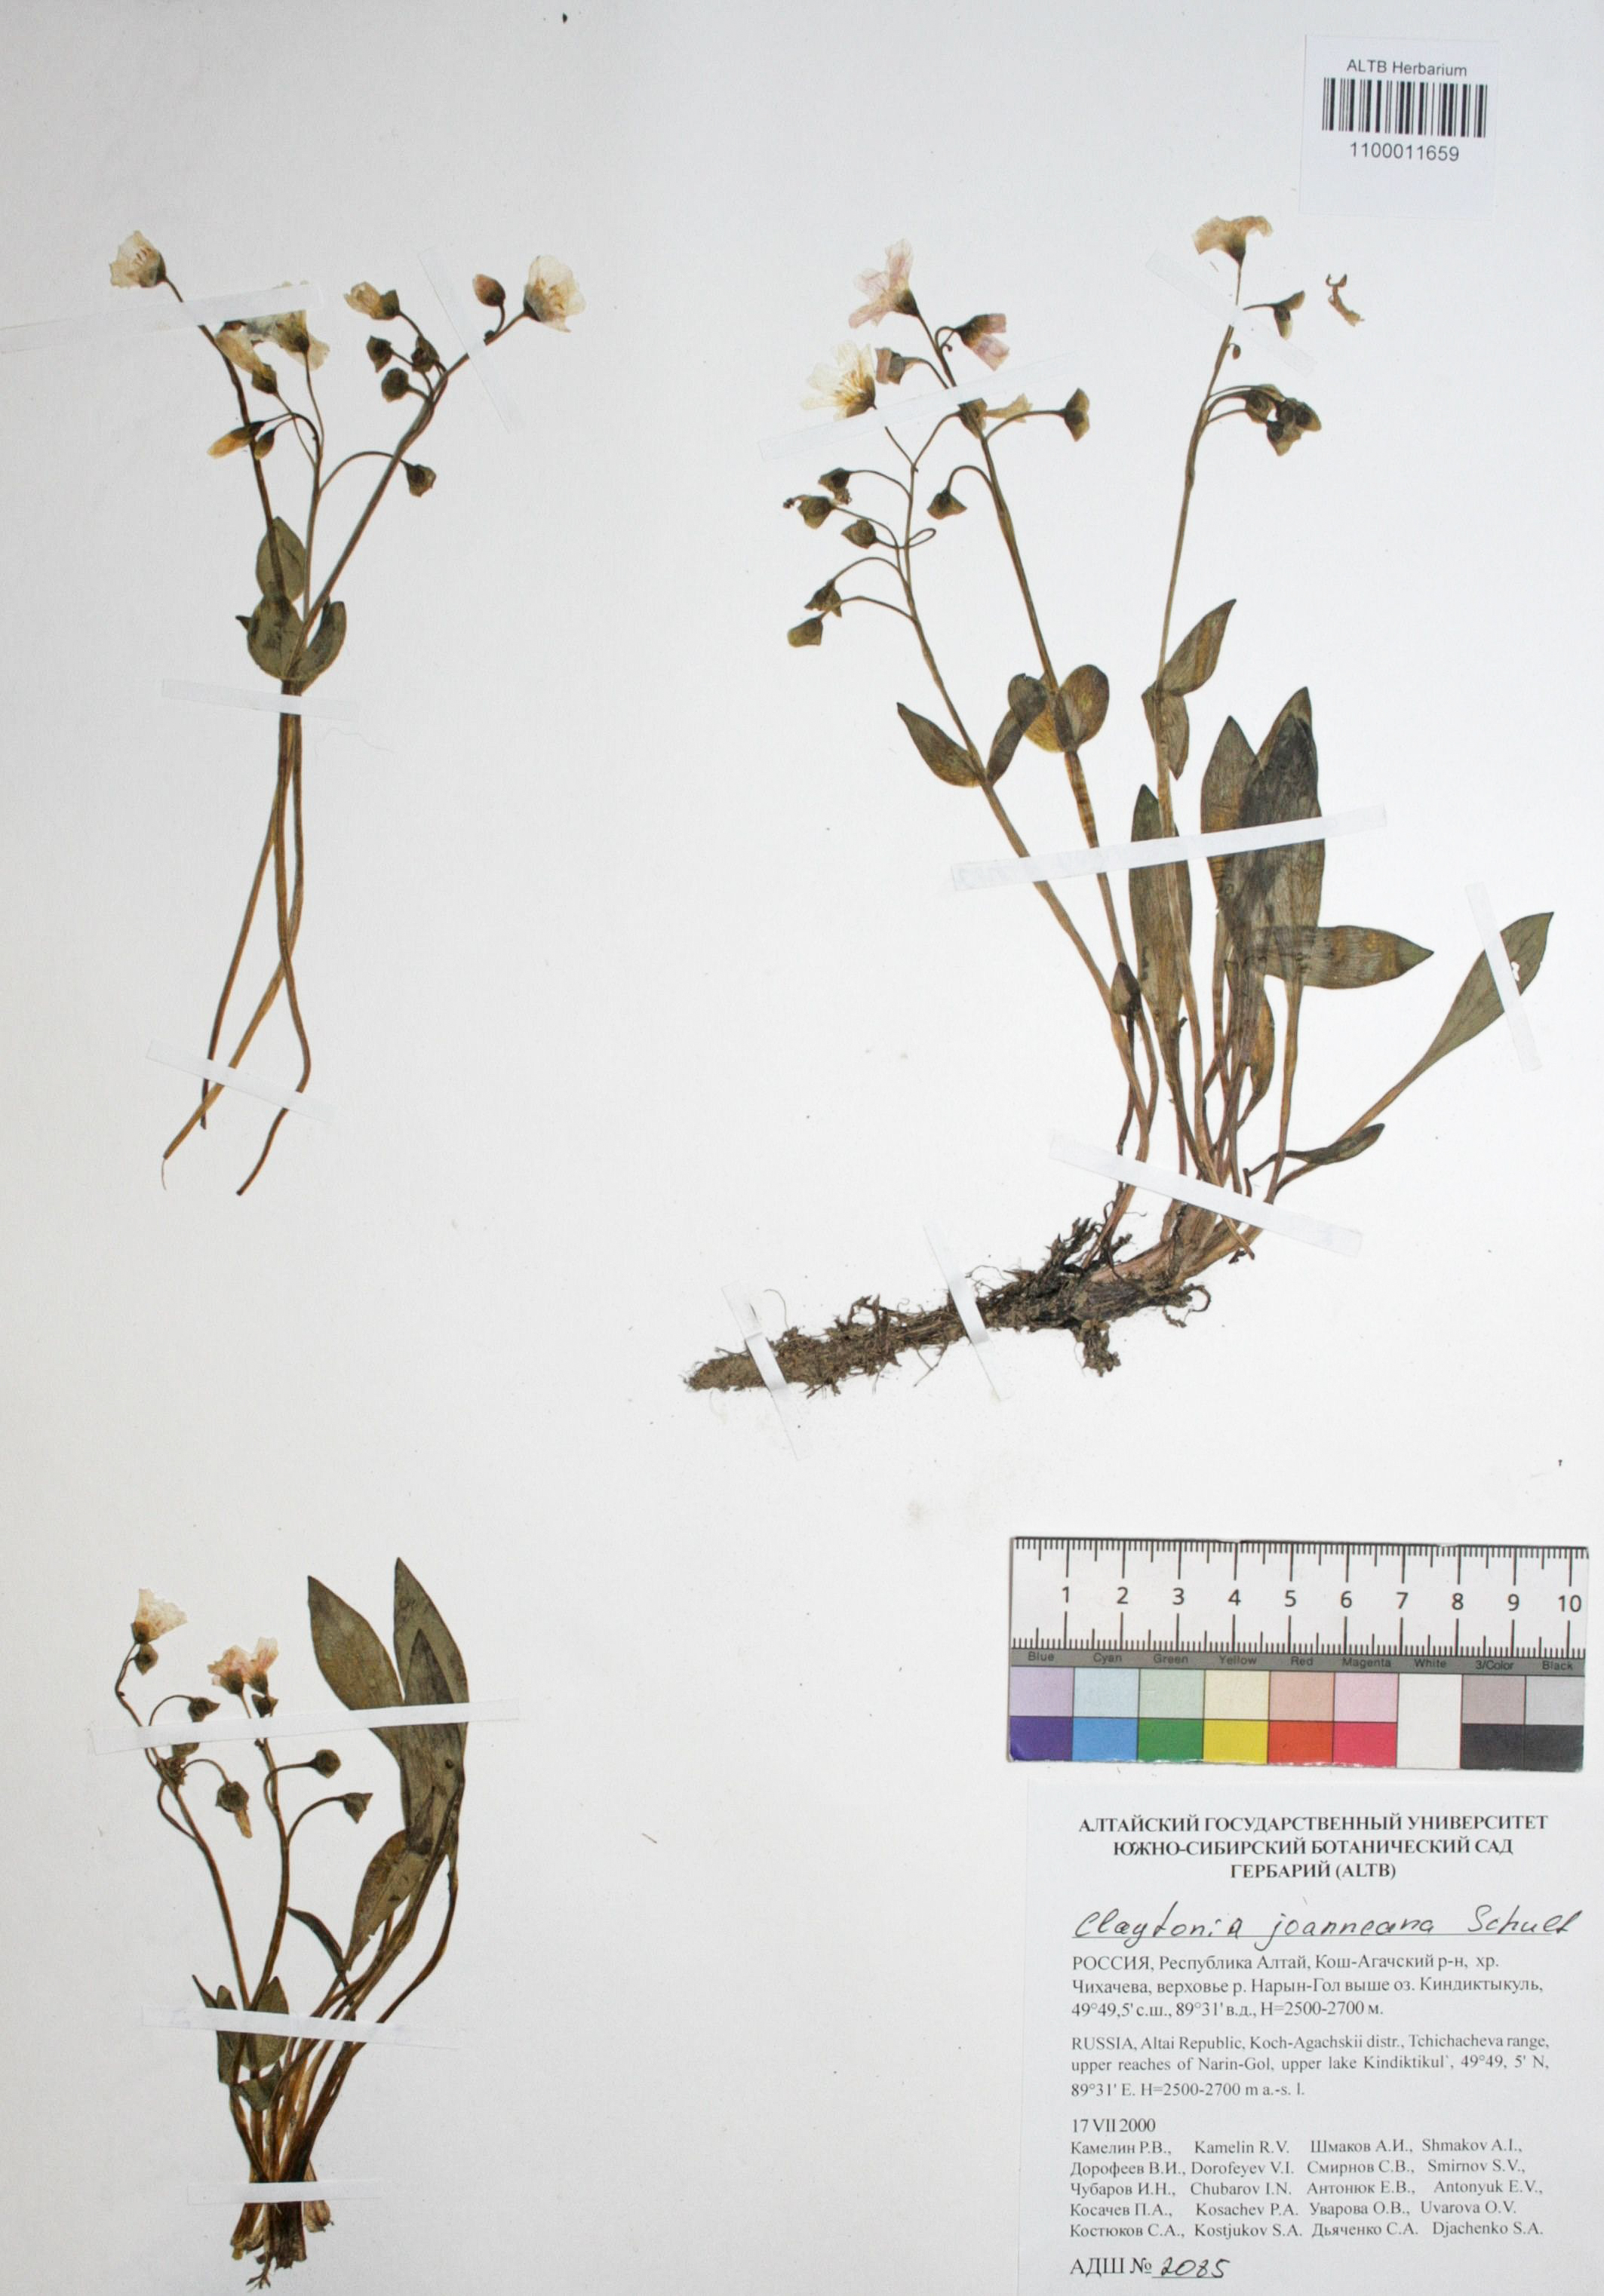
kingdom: Plantae
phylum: Tracheophyta
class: Magnoliopsida
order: Caryophyllales
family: Montiaceae
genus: Claytonia
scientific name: Claytonia joanneana
